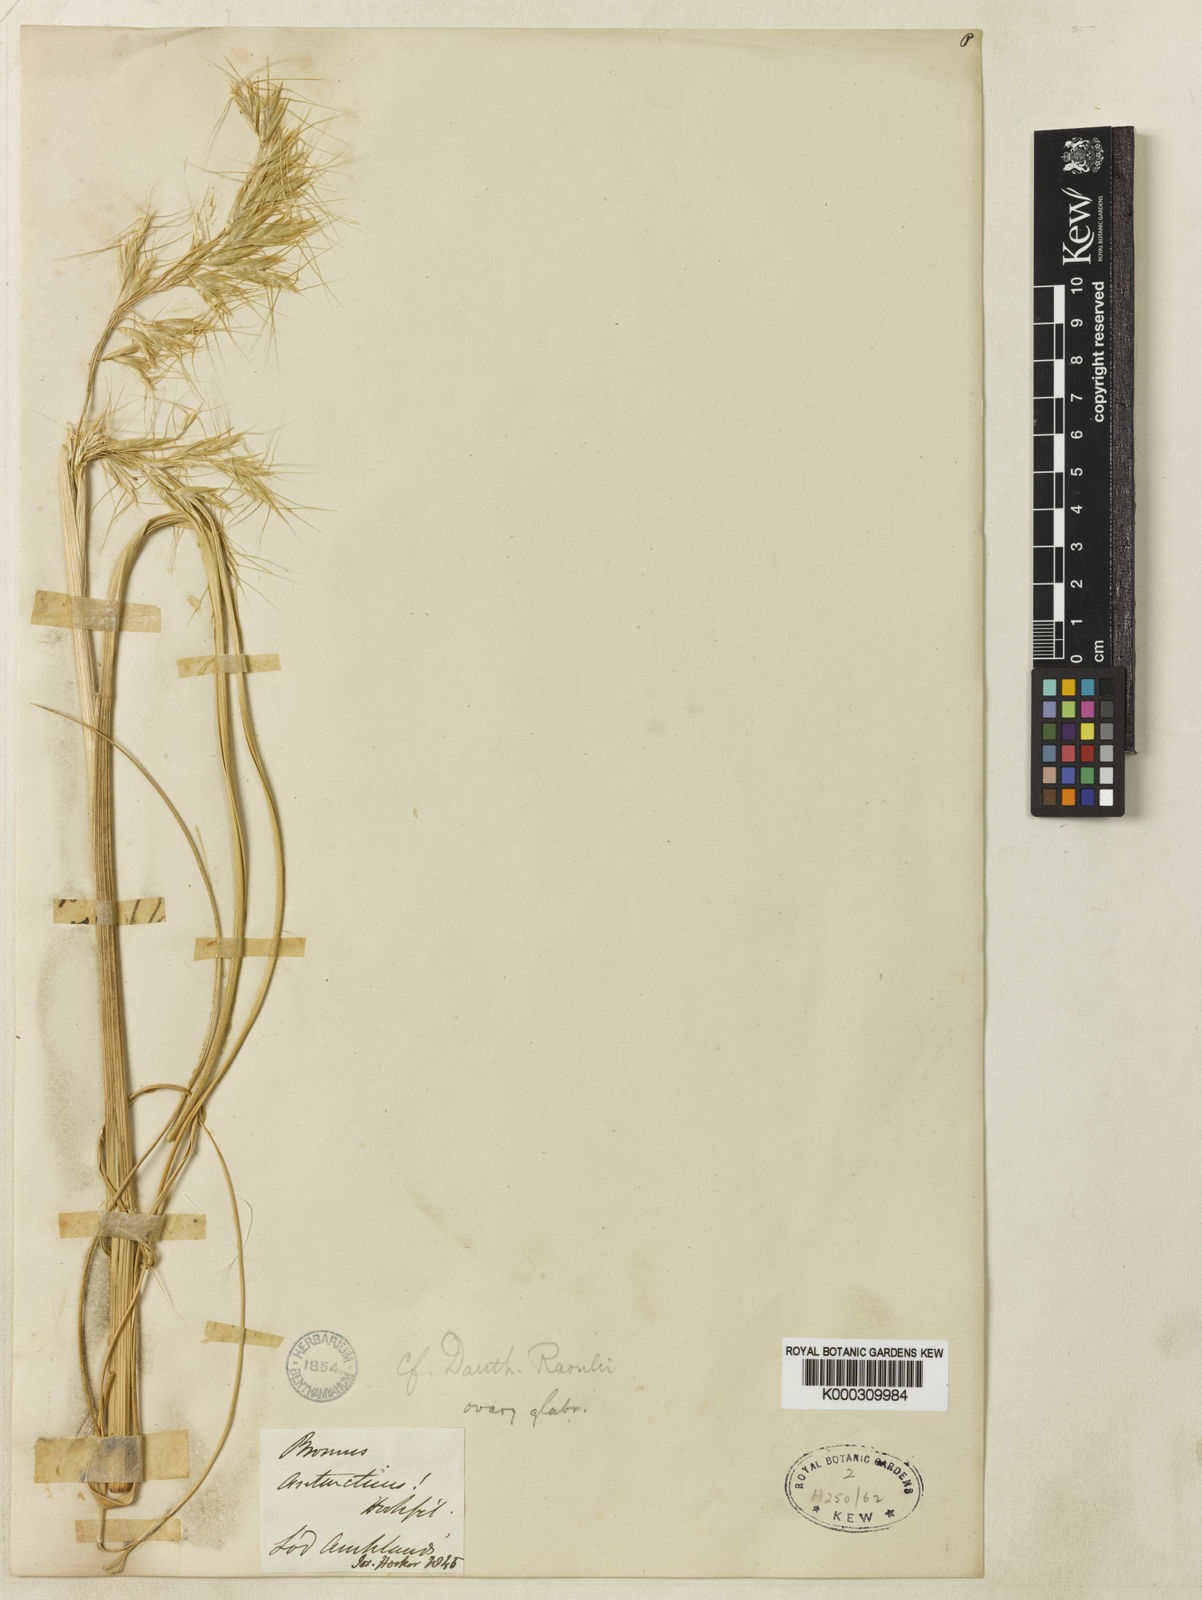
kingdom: Plantae
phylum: Tracheophyta
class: Liliopsida
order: Poales
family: Poaceae
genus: Chionochloa
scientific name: Chionochloa antarctica
